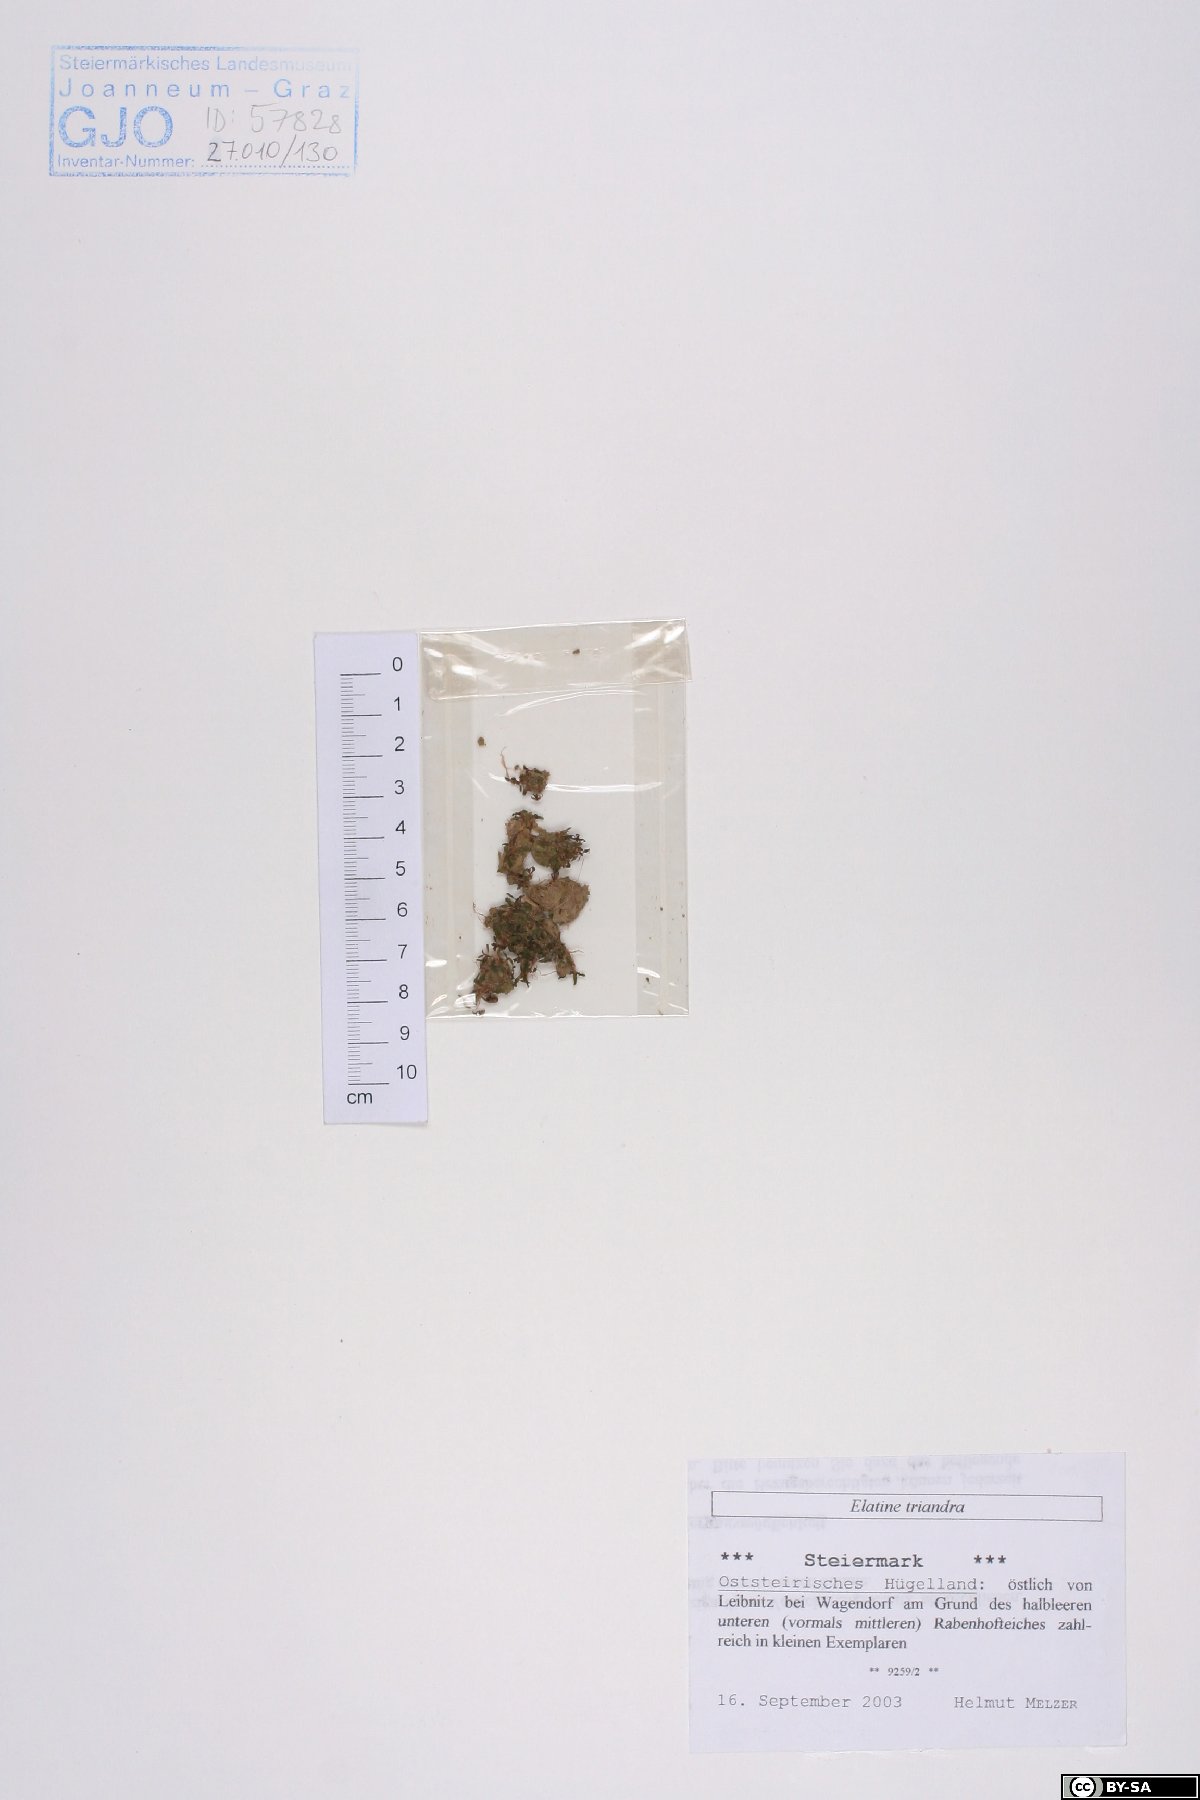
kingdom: Plantae
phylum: Tracheophyta
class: Magnoliopsida
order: Malpighiales
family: Elatinaceae
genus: Elatine
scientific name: Elatine triandra
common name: Three-stamened waterwort
